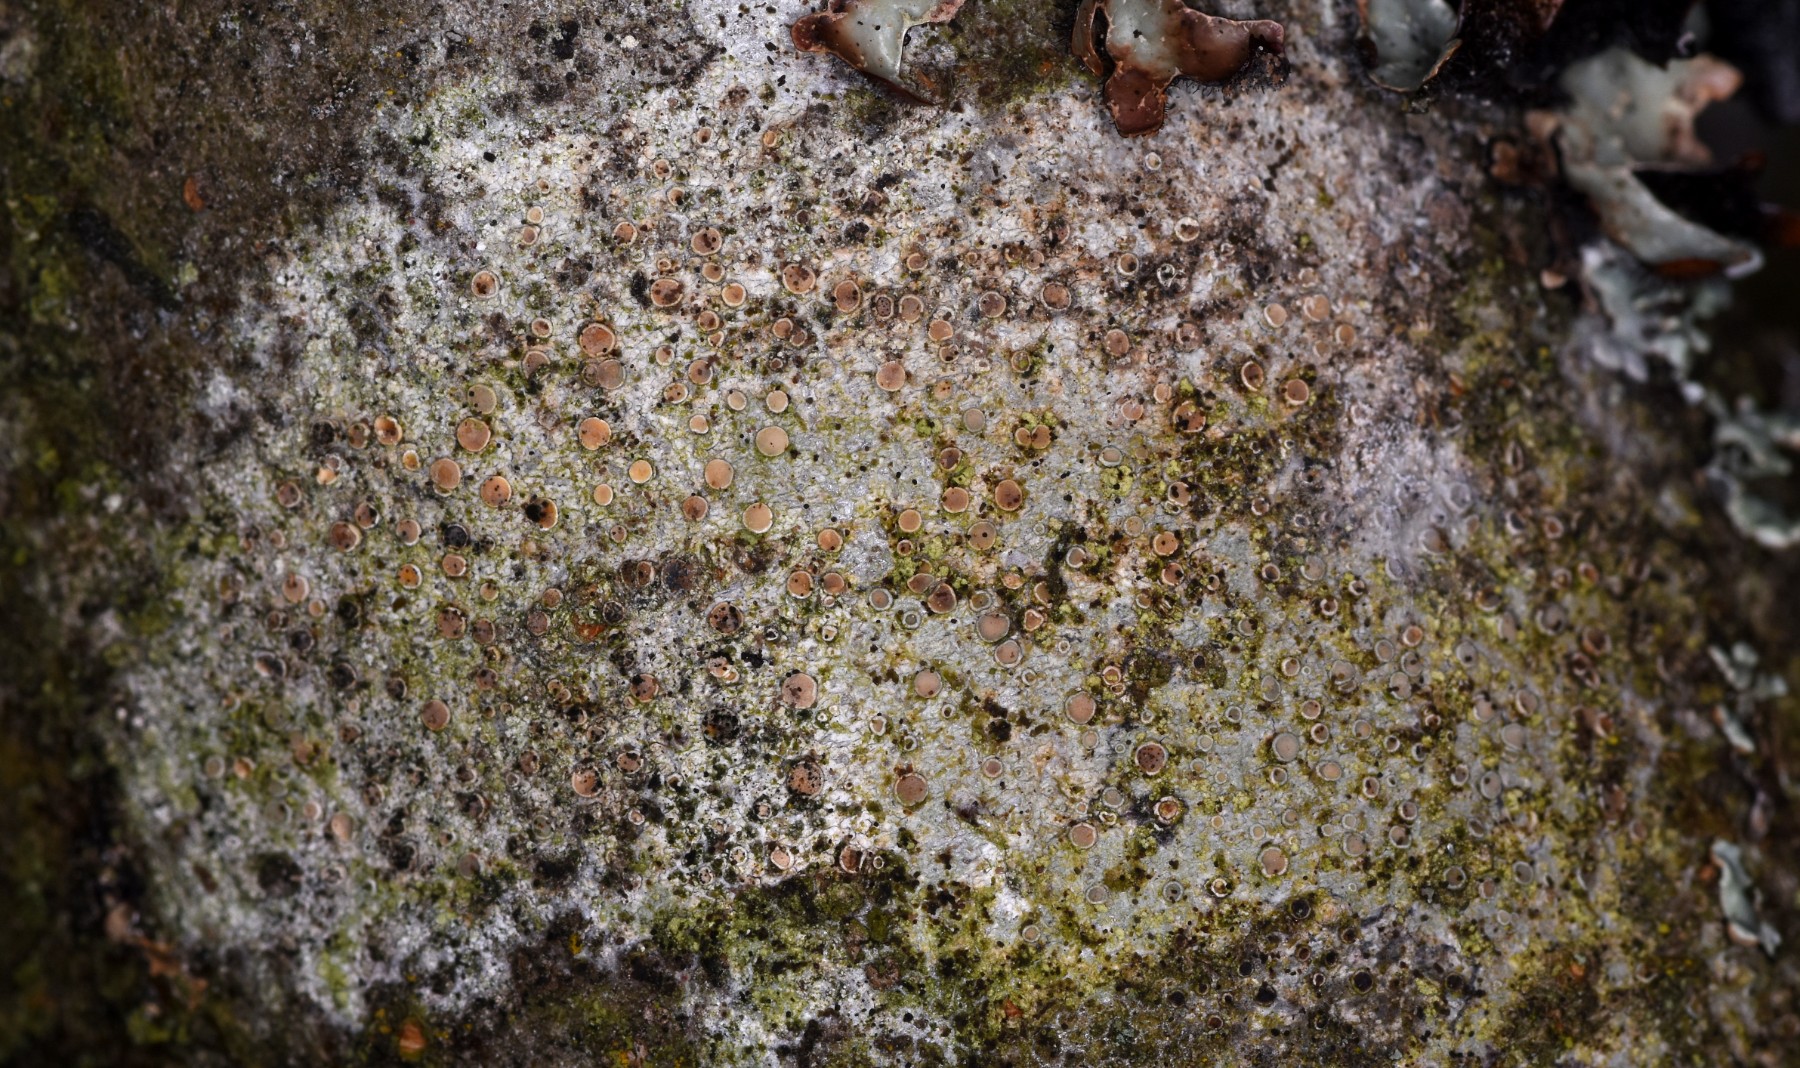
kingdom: Fungi
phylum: Ascomycota
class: Lecanoromycetes
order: Lecanorales
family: Lecanoraceae
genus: Lecanora
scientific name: Lecanora chlarotera
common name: brun kantskivelav
